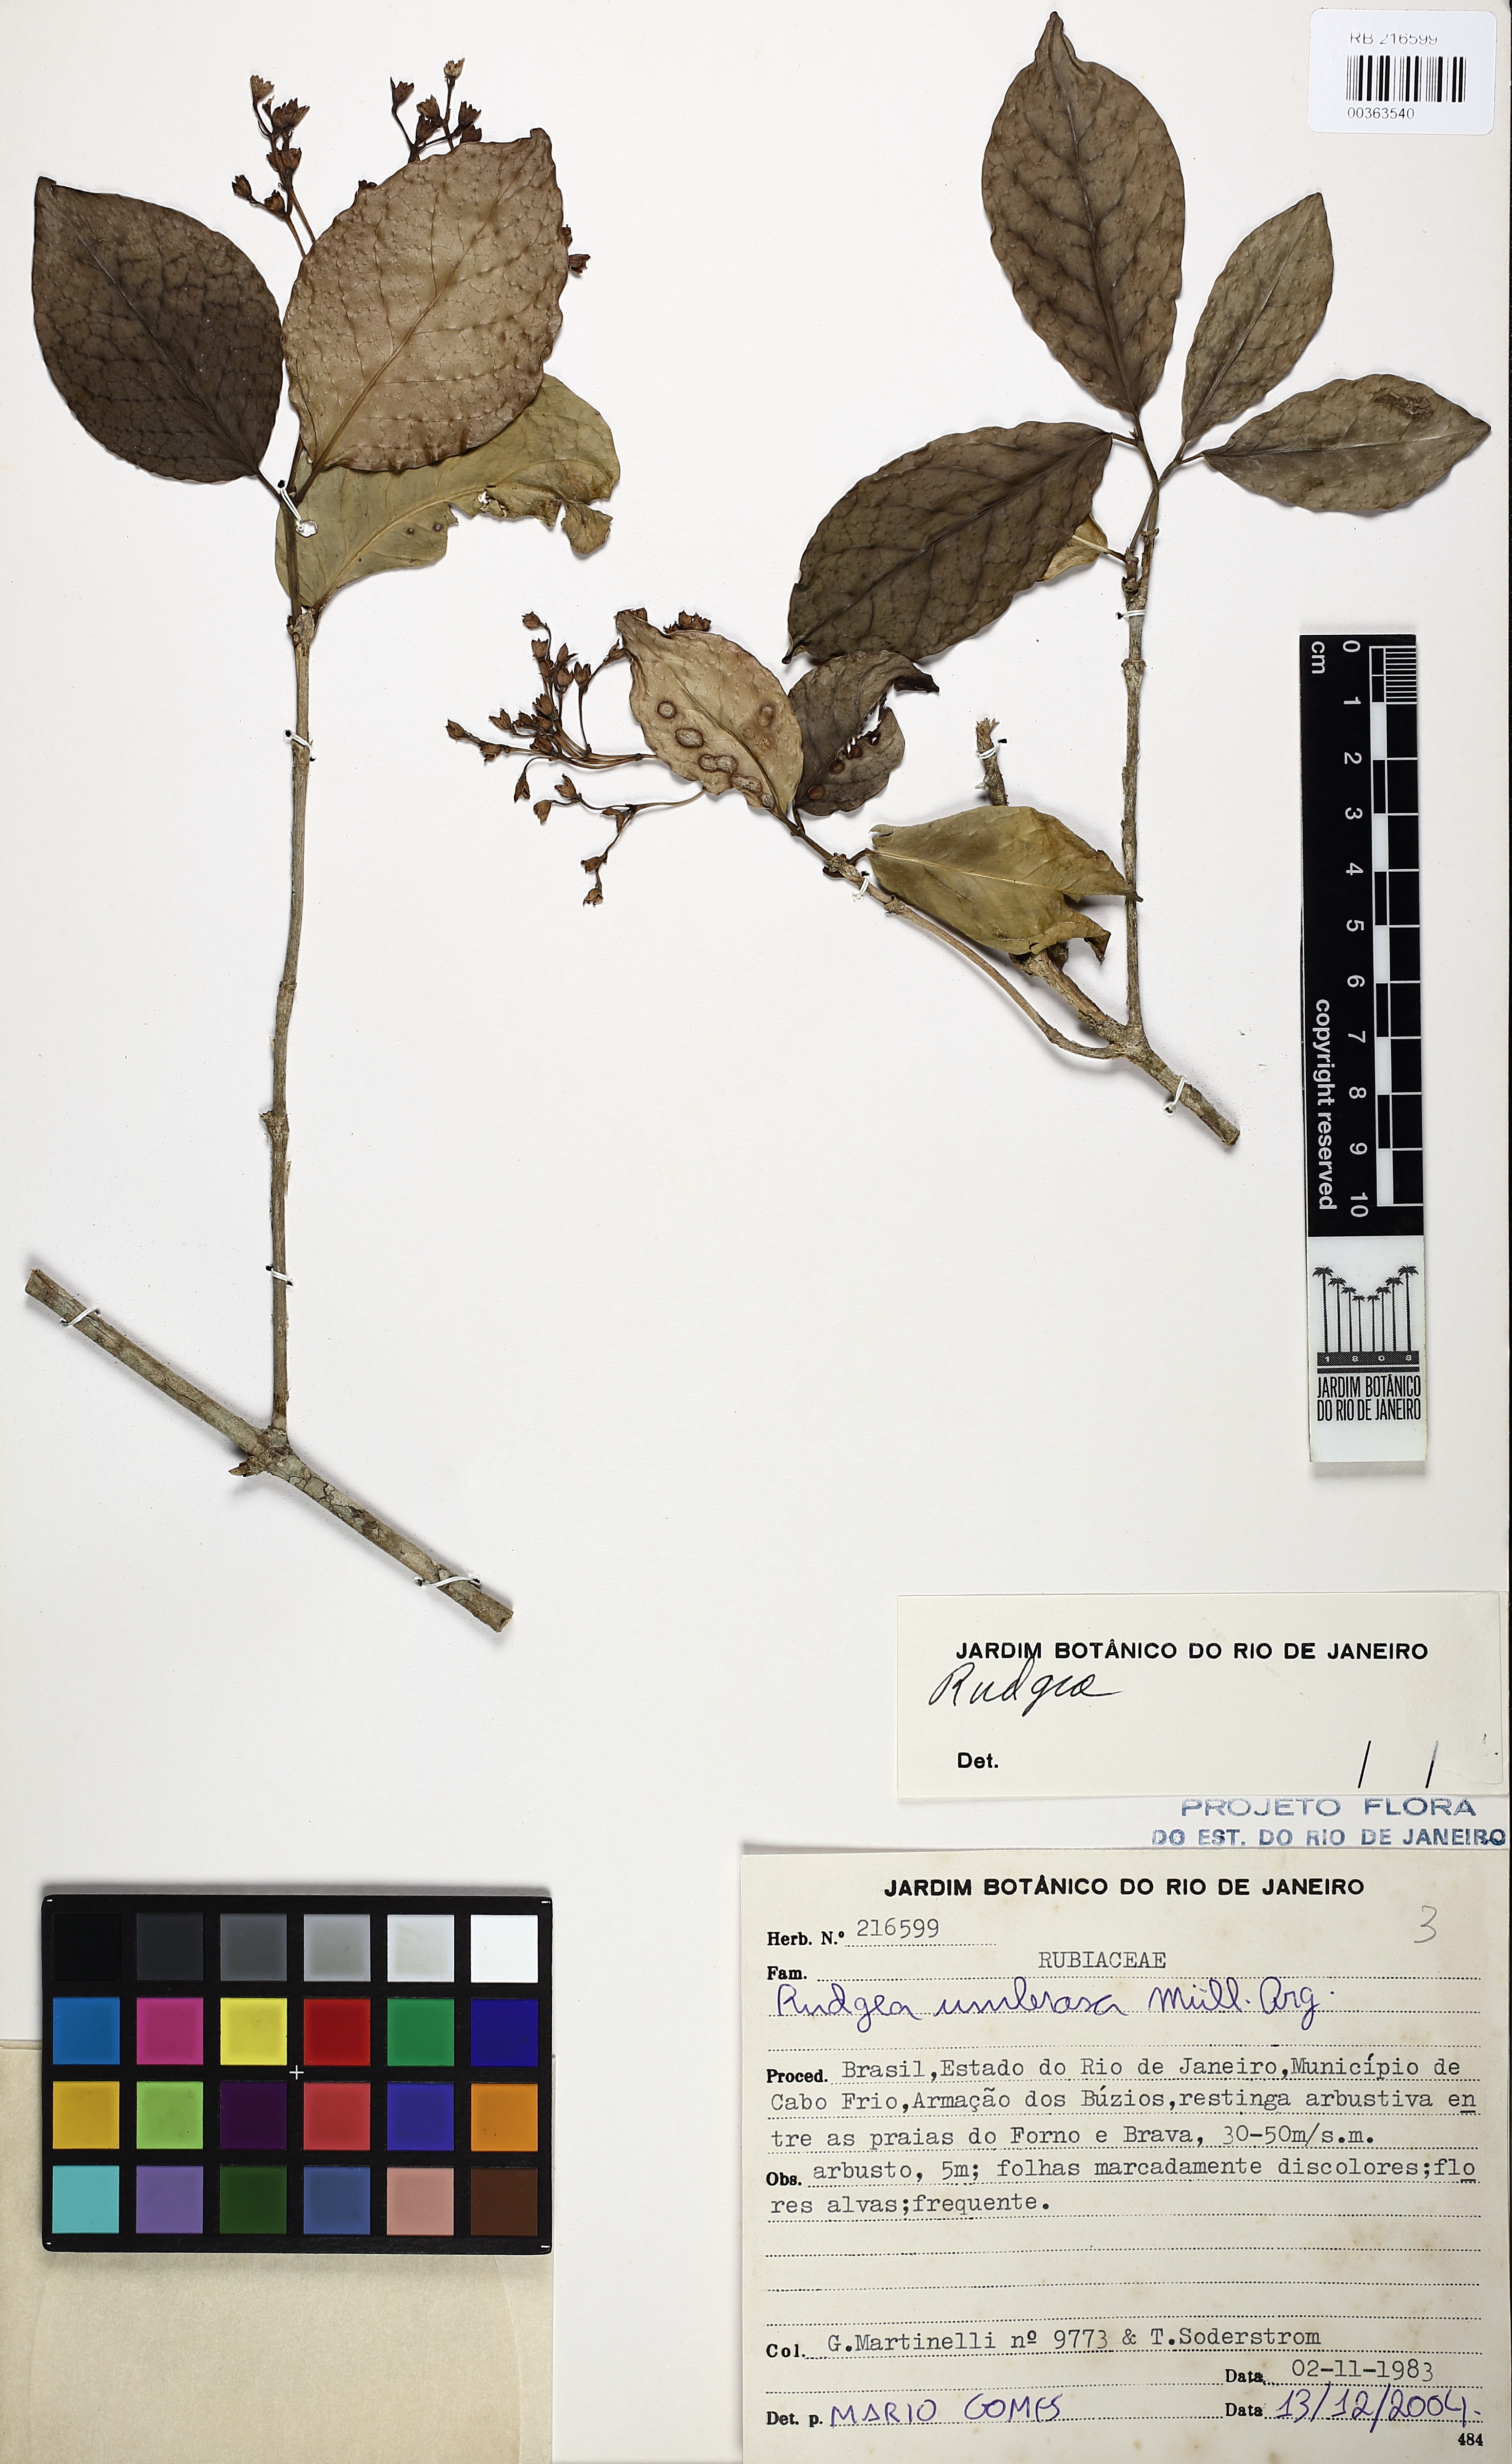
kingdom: Plantae
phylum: Tracheophyta
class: Magnoliopsida
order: Gentianales
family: Rubiaceae
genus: Rudgea
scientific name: Rudgea umbrosa
